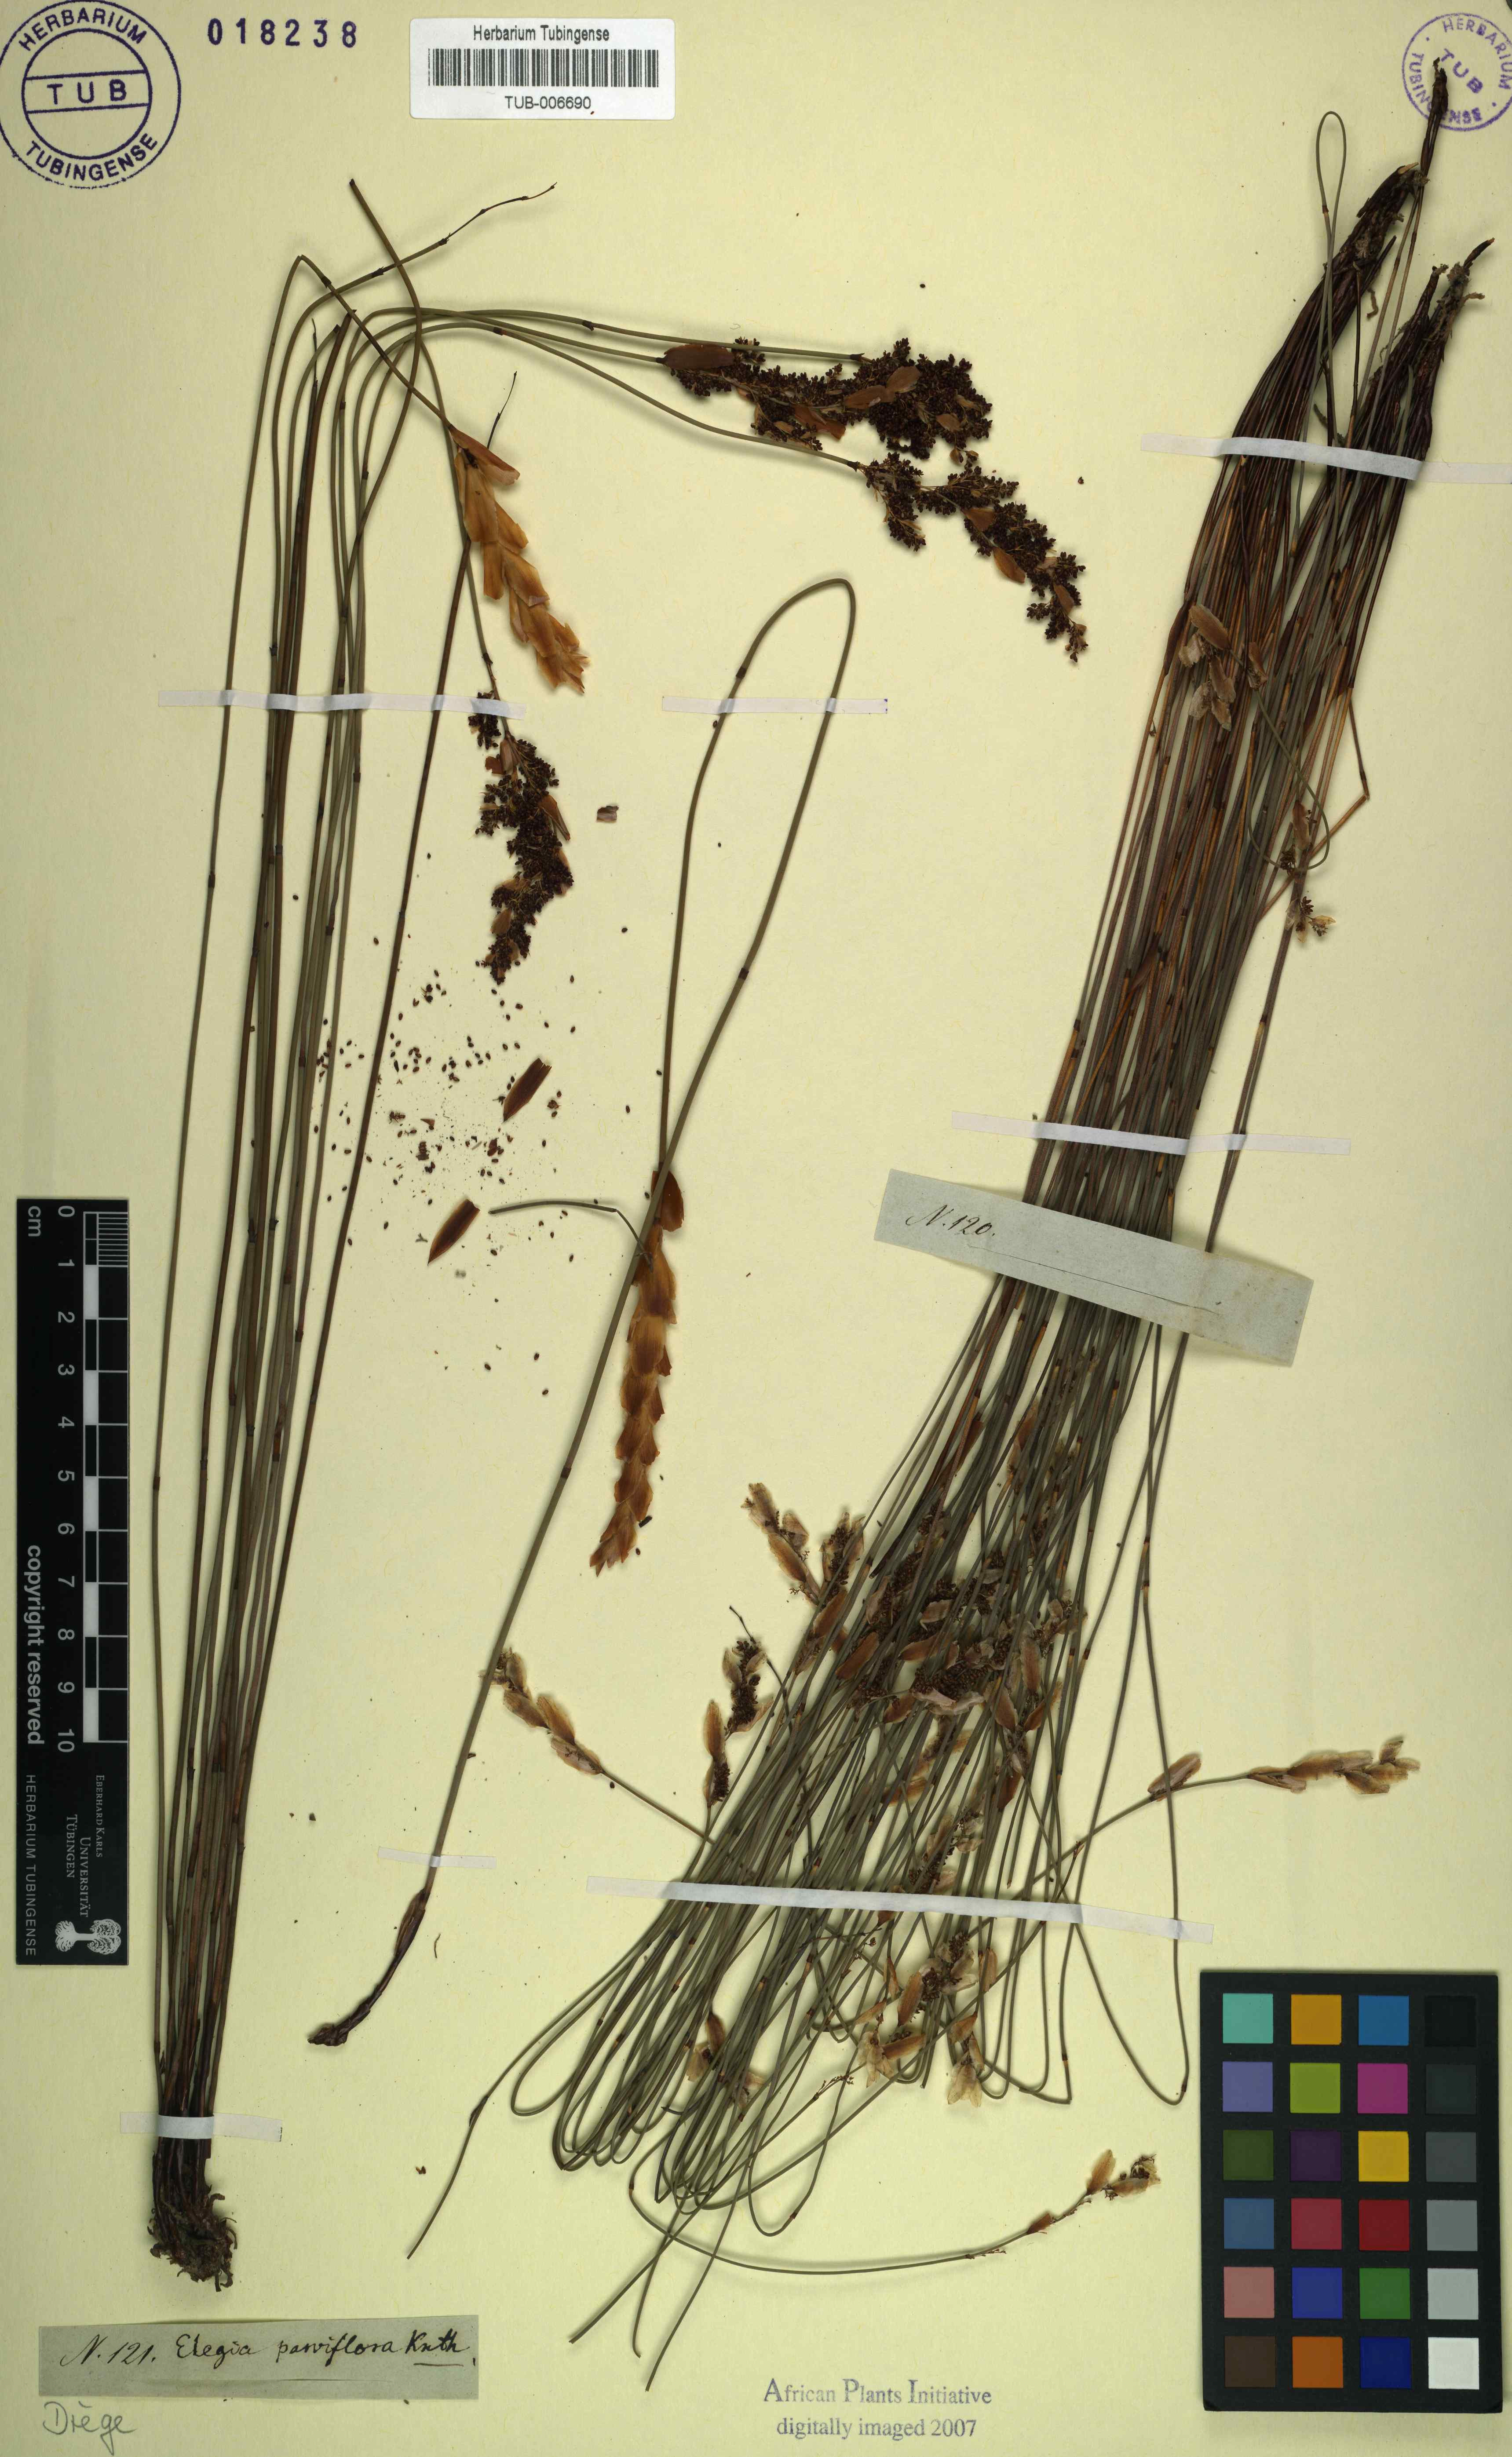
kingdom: Plantae
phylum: Tracheophyta
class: Liliopsida
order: Poales
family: Restionaceae
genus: Cannomois
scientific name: Cannomois parviflora
